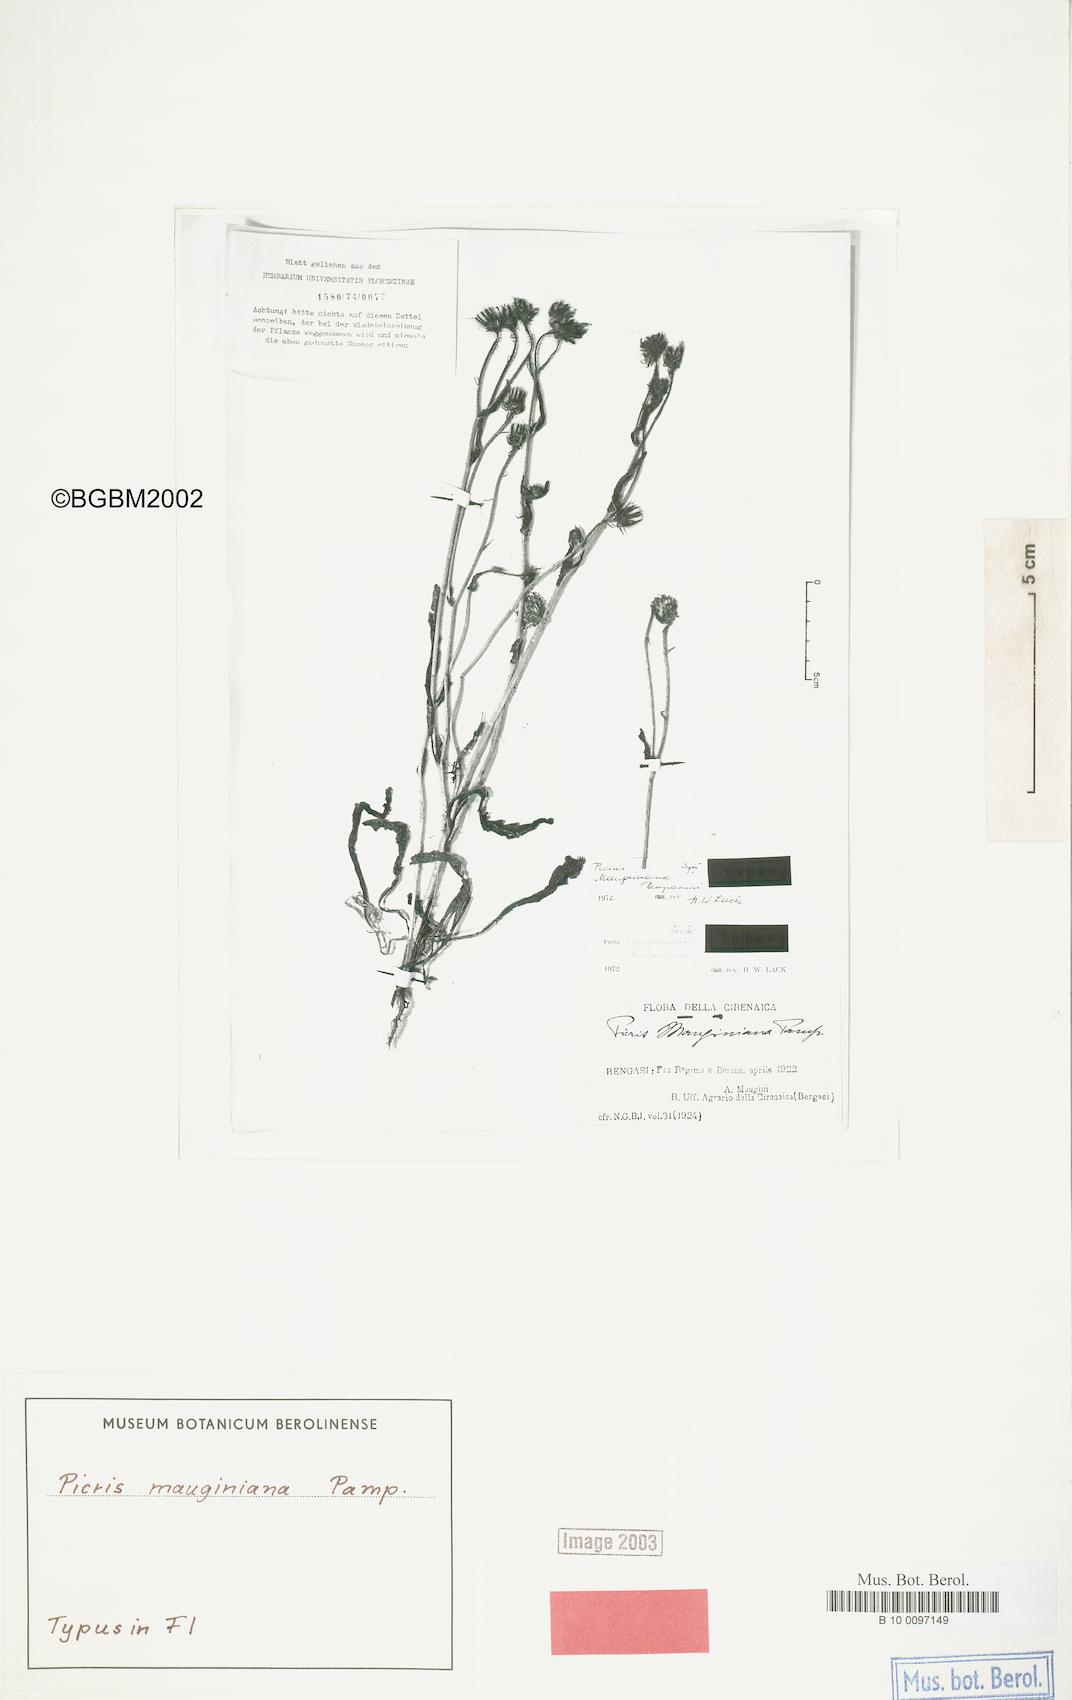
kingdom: Plantae
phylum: Tracheophyta
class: Magnoliopsida
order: Asterales
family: Asteraceae
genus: Picris
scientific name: Picris mauginiana
